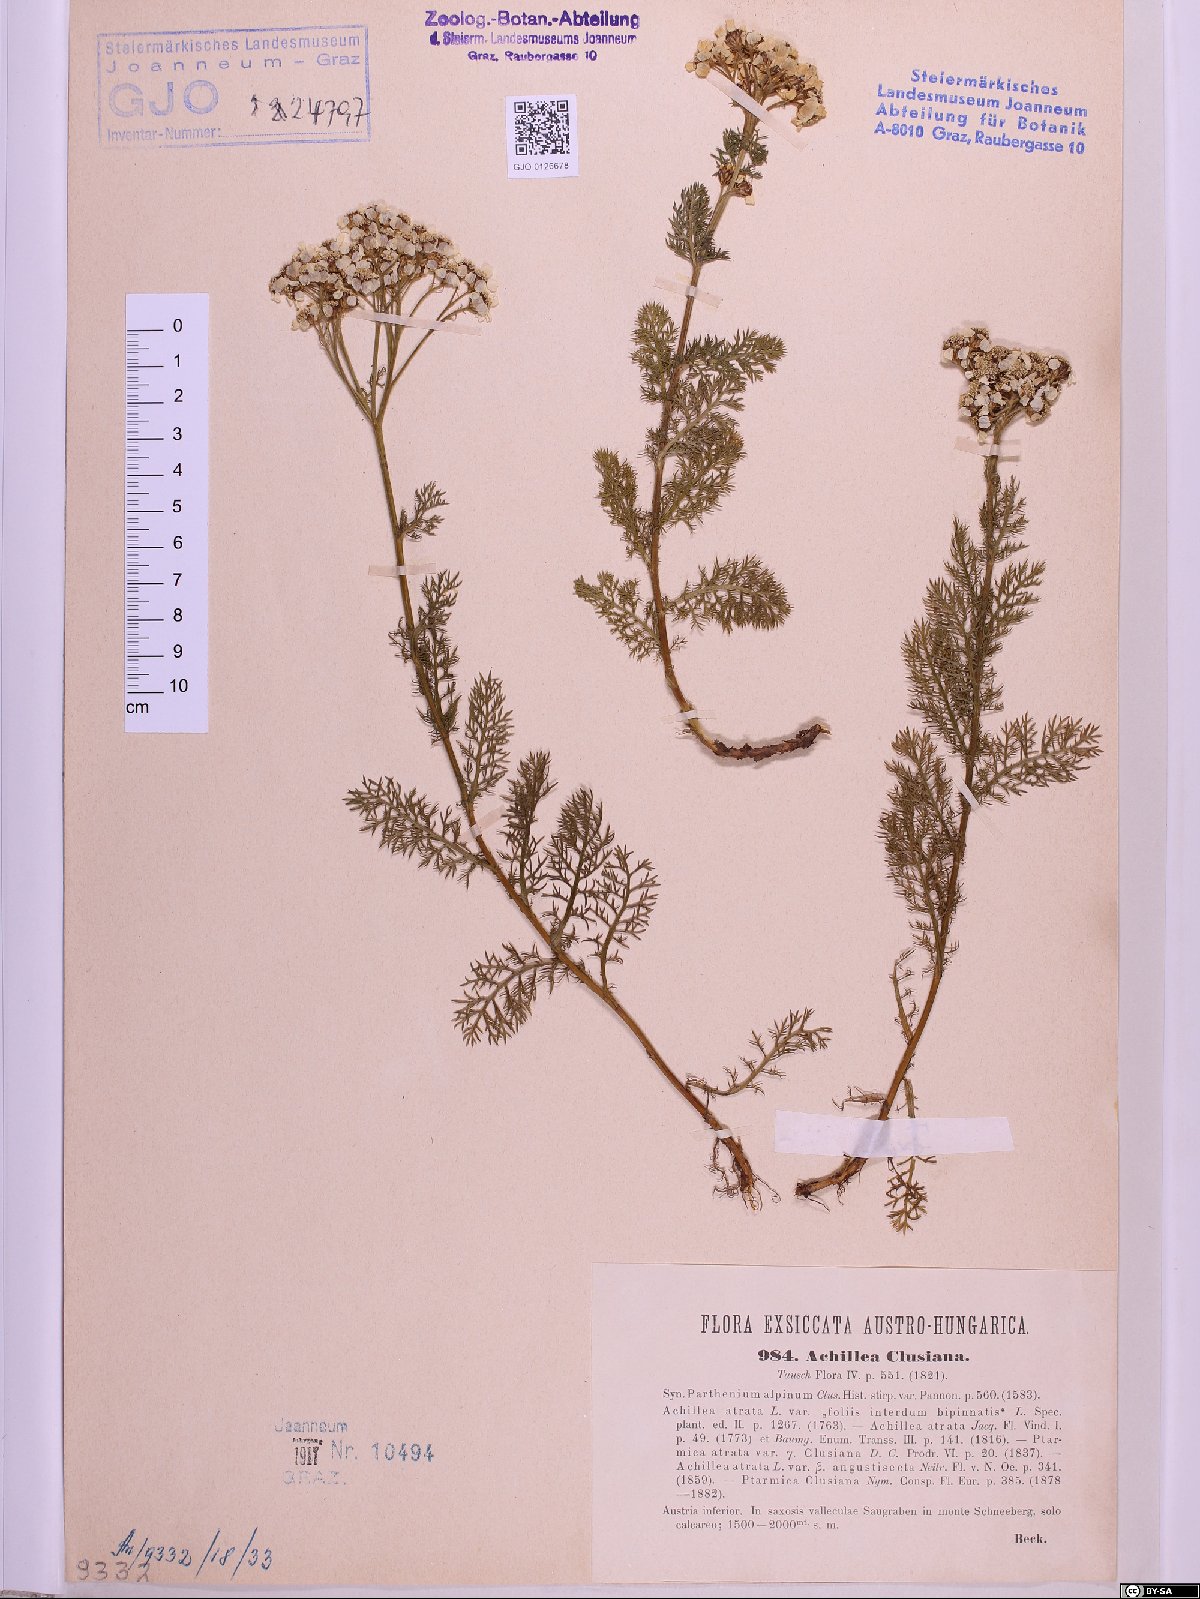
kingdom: Plantae
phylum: Tracheophyta
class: Magnoliopsida
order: Asterales
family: Asteraceae
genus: Achillea
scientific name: Achillea clusiana
